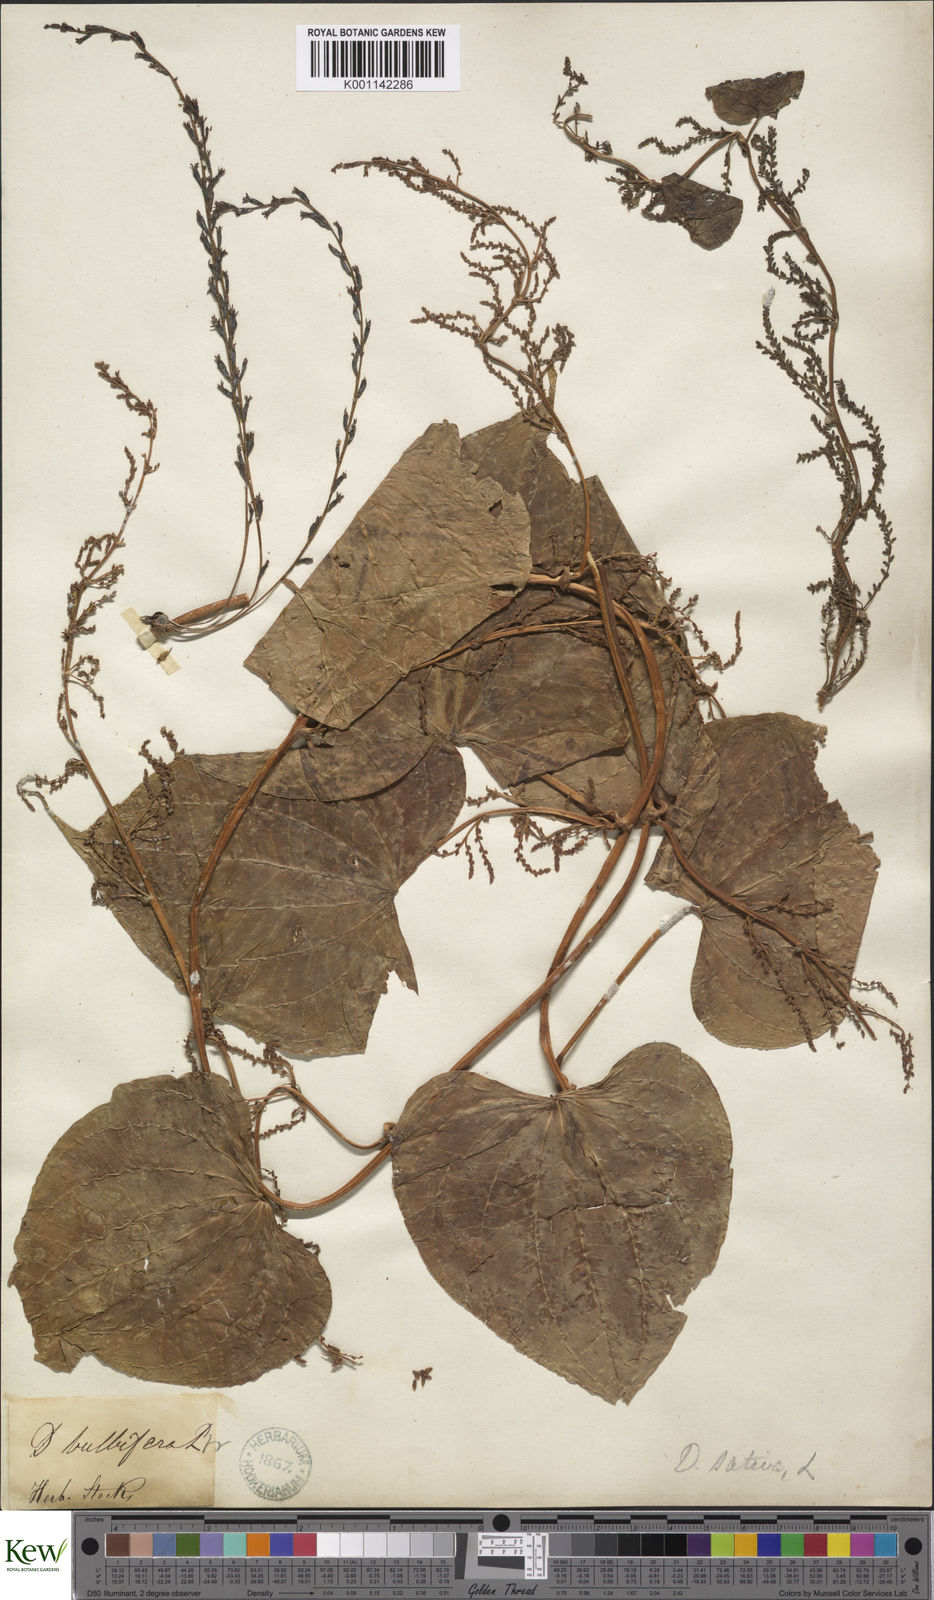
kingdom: Plantae
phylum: Tracheophyta
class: Liliopsida
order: Dioscoreales
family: Dioscoreaceae
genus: Dioscorea
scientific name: Dioscorea bulbifera
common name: Air yam
